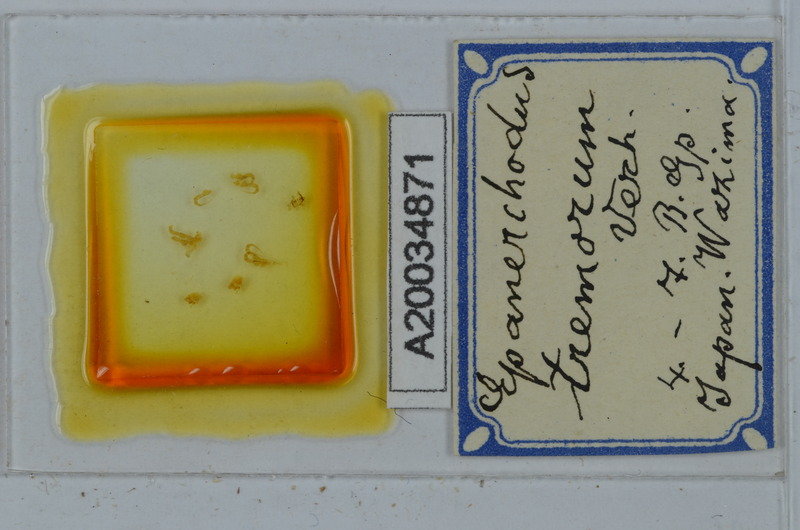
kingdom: Animalia
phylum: Arthropoda
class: Diplopoda
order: Polydesmida
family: Polydesmidae
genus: Epanerchodus
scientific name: Epanerchodus tremorum
